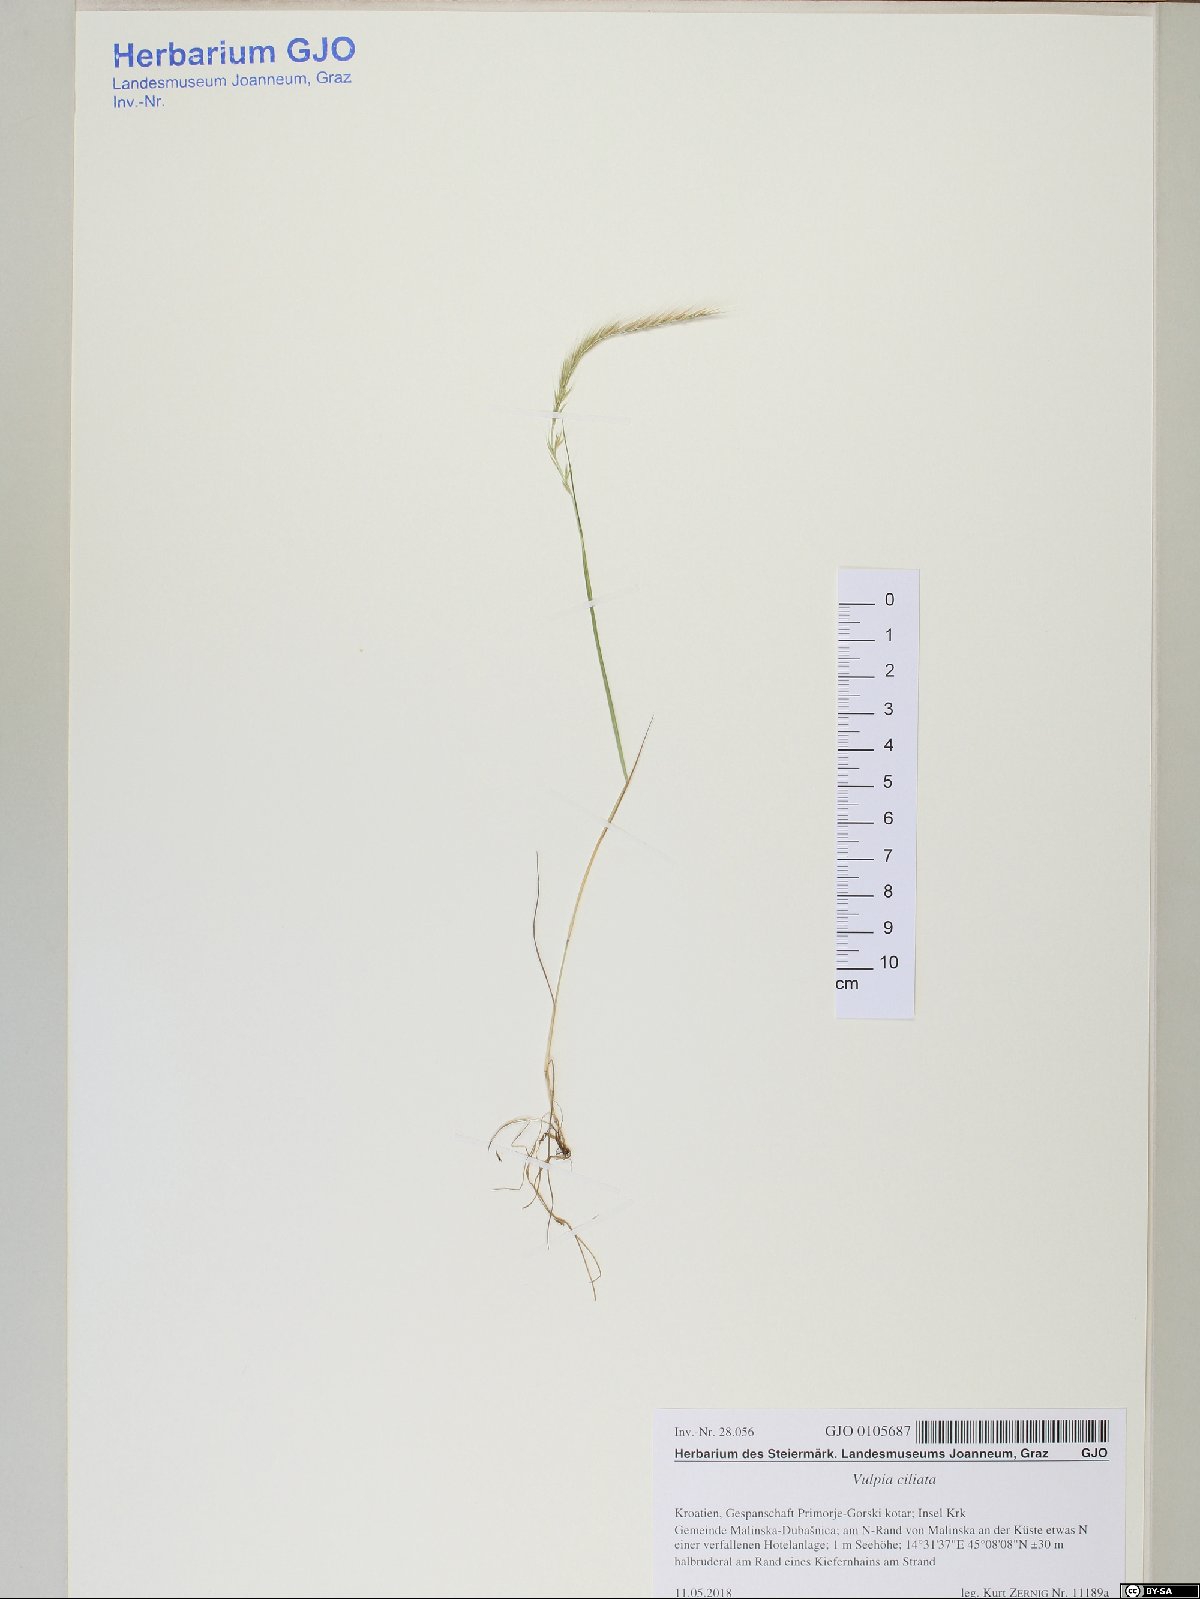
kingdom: Plantae
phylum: Tracheophyta
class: Liliopsida
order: Poales
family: Poaceae
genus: Festuca
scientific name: Festuca ambigua
